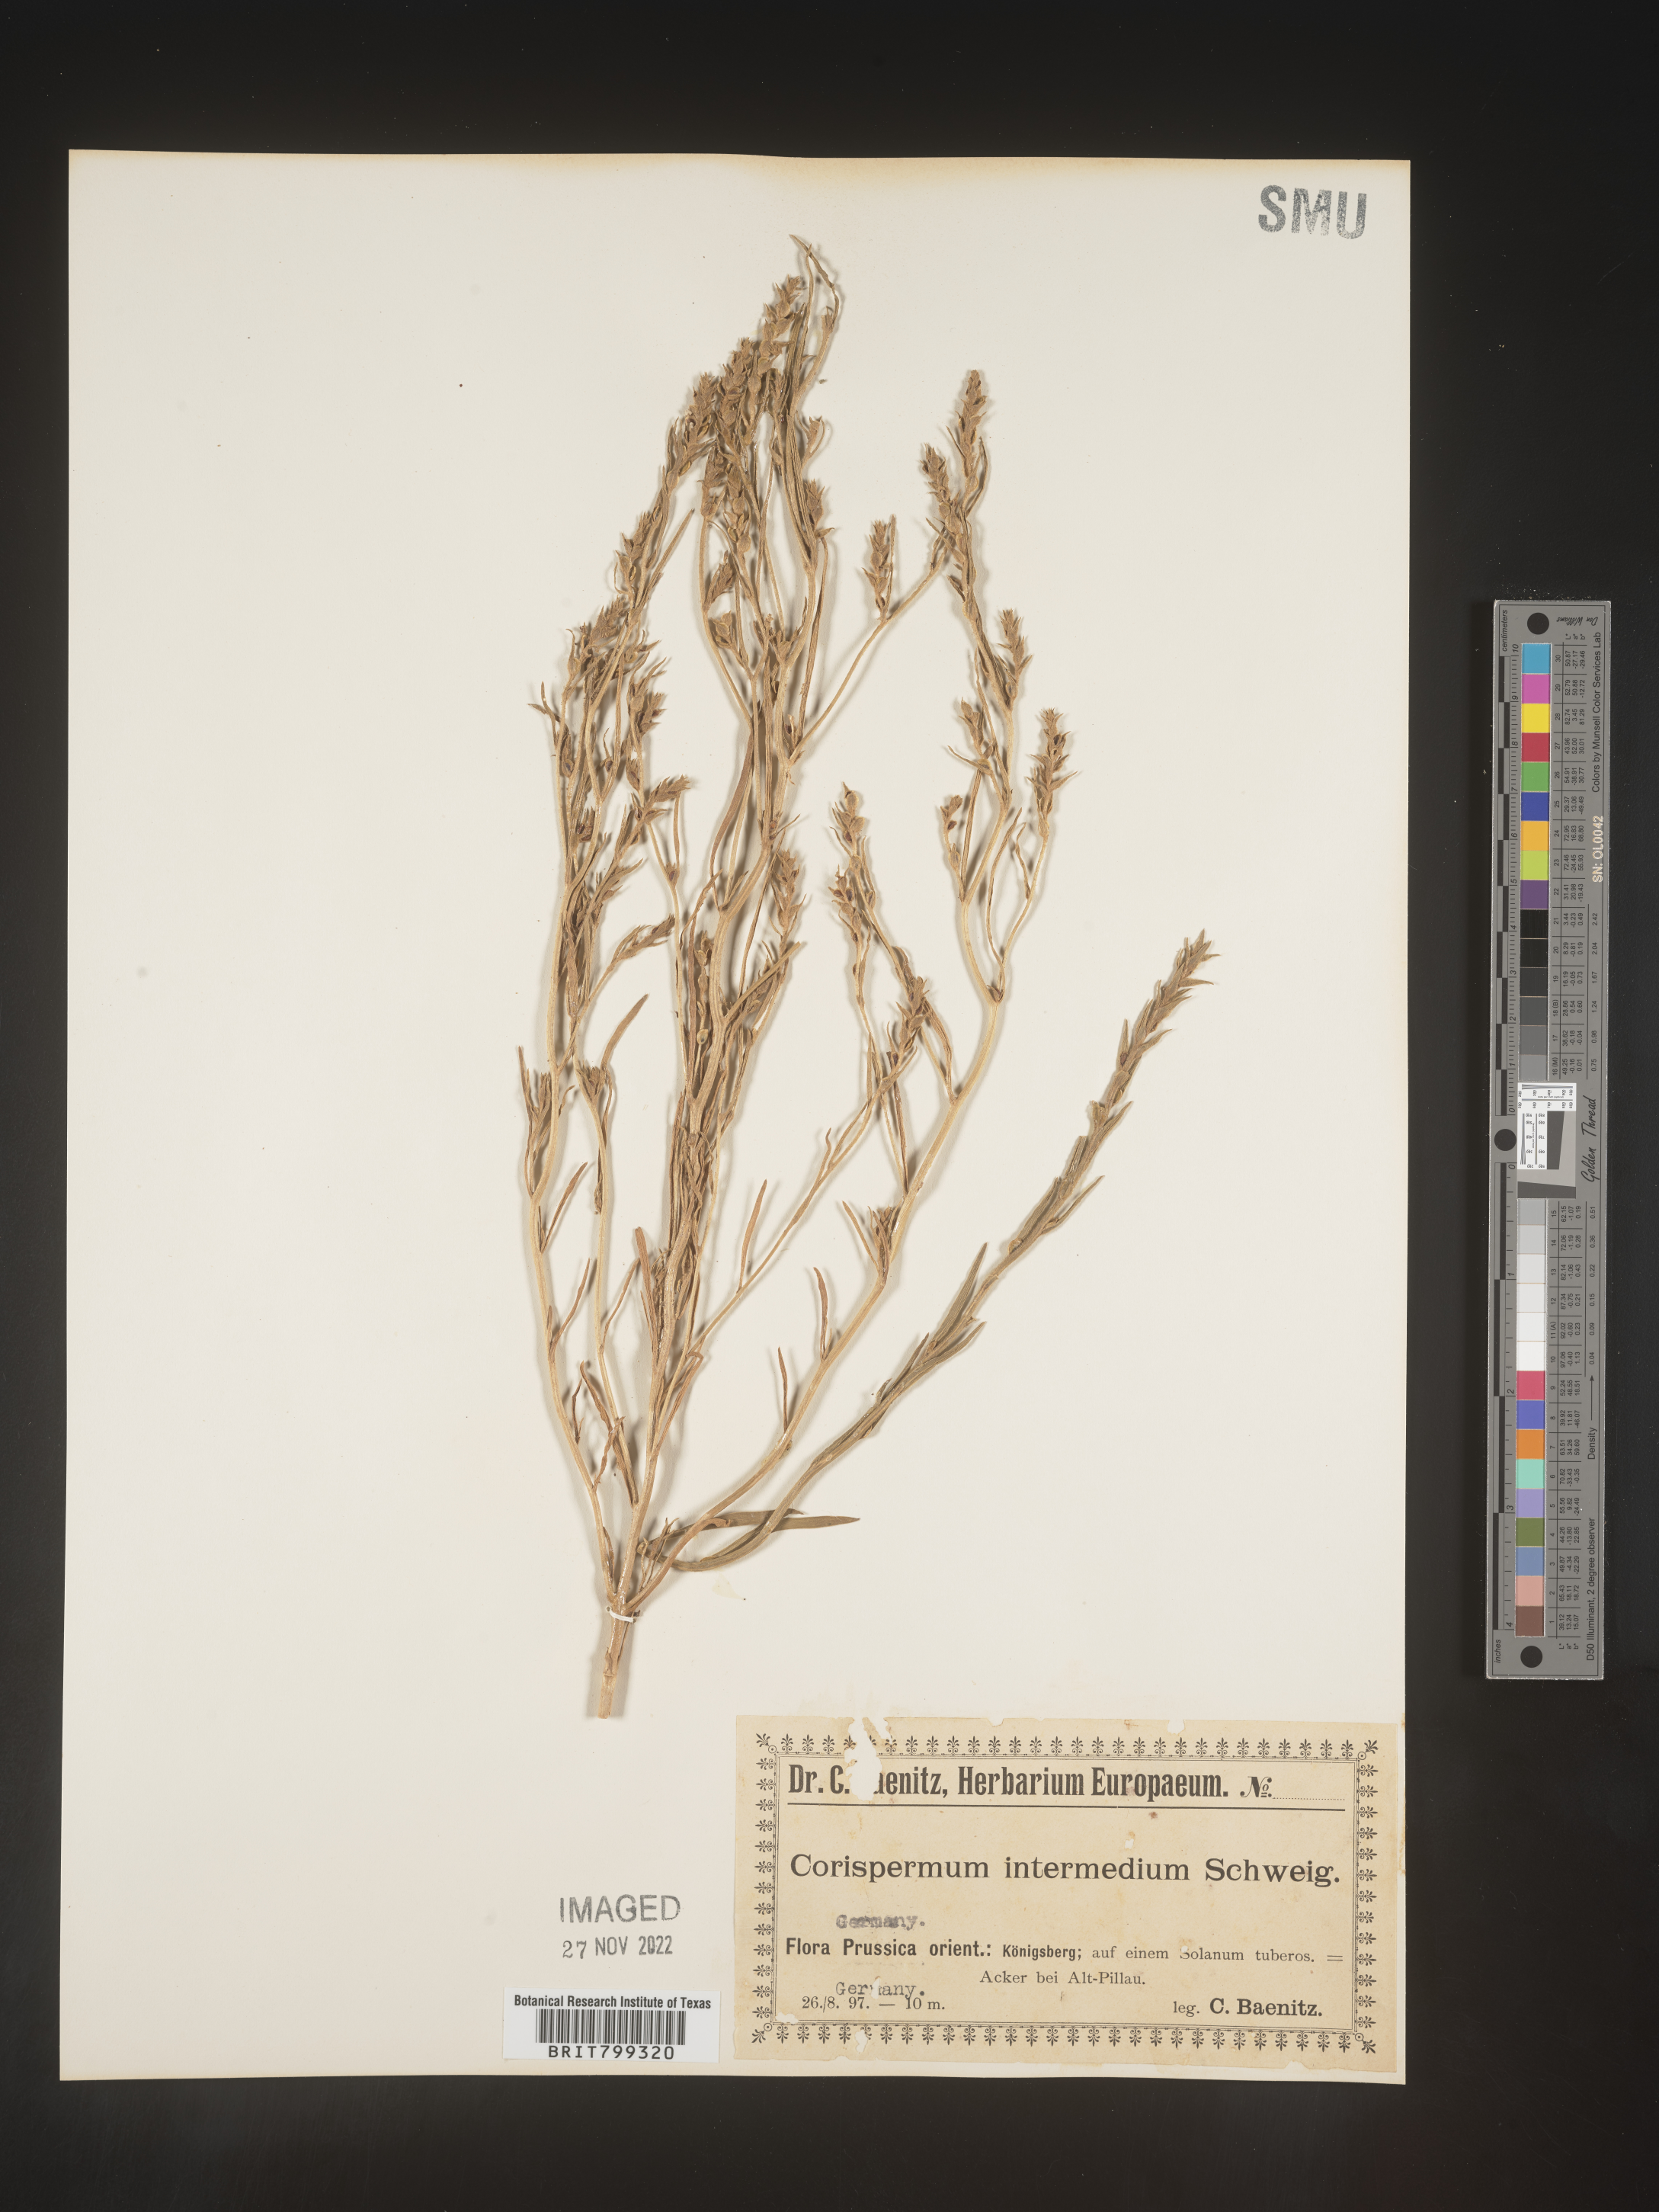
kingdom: Plantae
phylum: Tracheophyta
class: Magnoliopsida
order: Caryophyllales
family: Amaranthaceae
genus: Corispermum
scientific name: Corispermum
